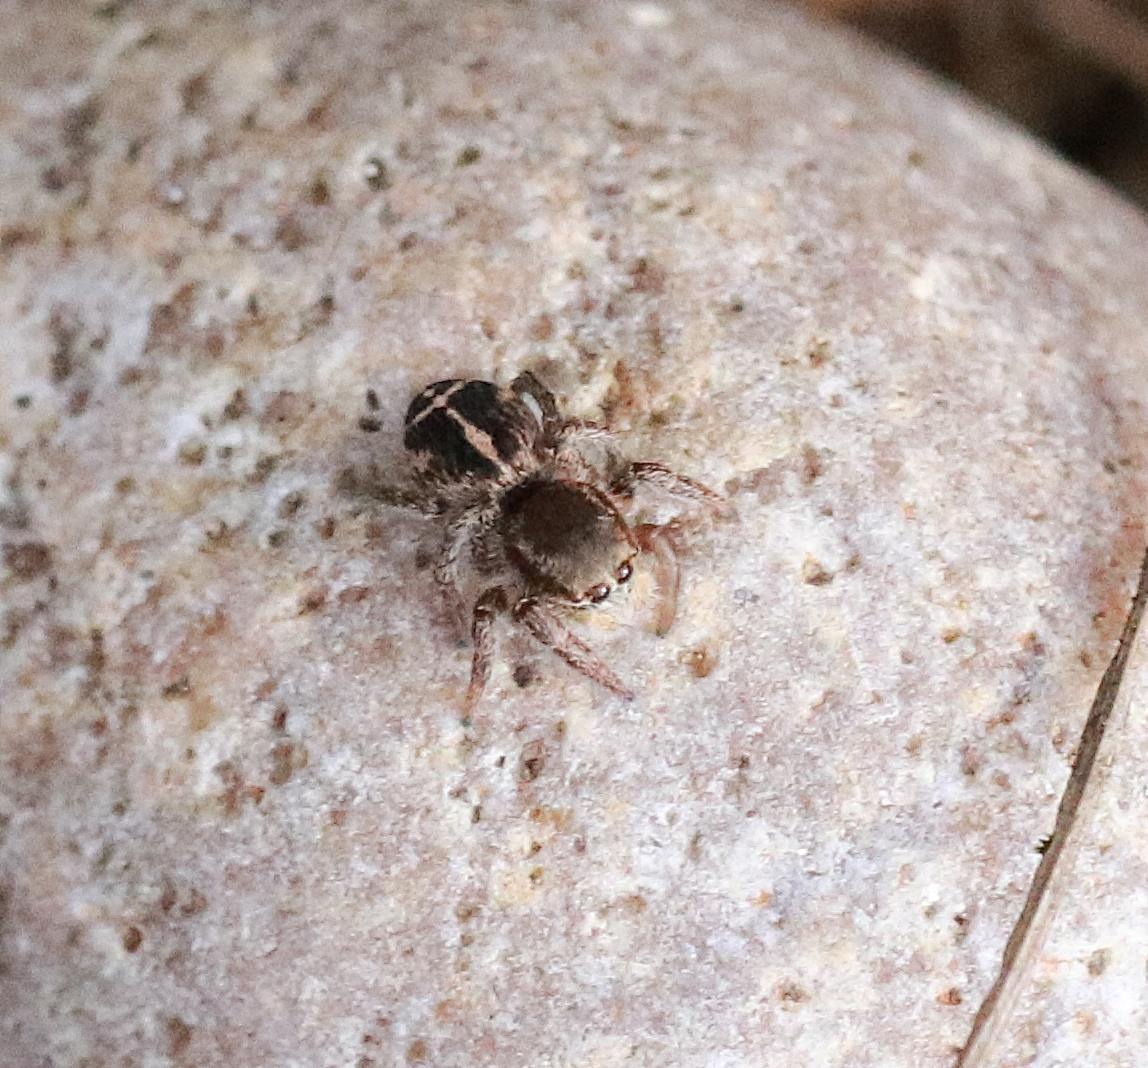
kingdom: Animalia
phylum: Arthropoda
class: Arachnida
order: Araneae
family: Salticidae
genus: Pellenes
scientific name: Pellenes tripunctatus
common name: Treplettet springedderkop
